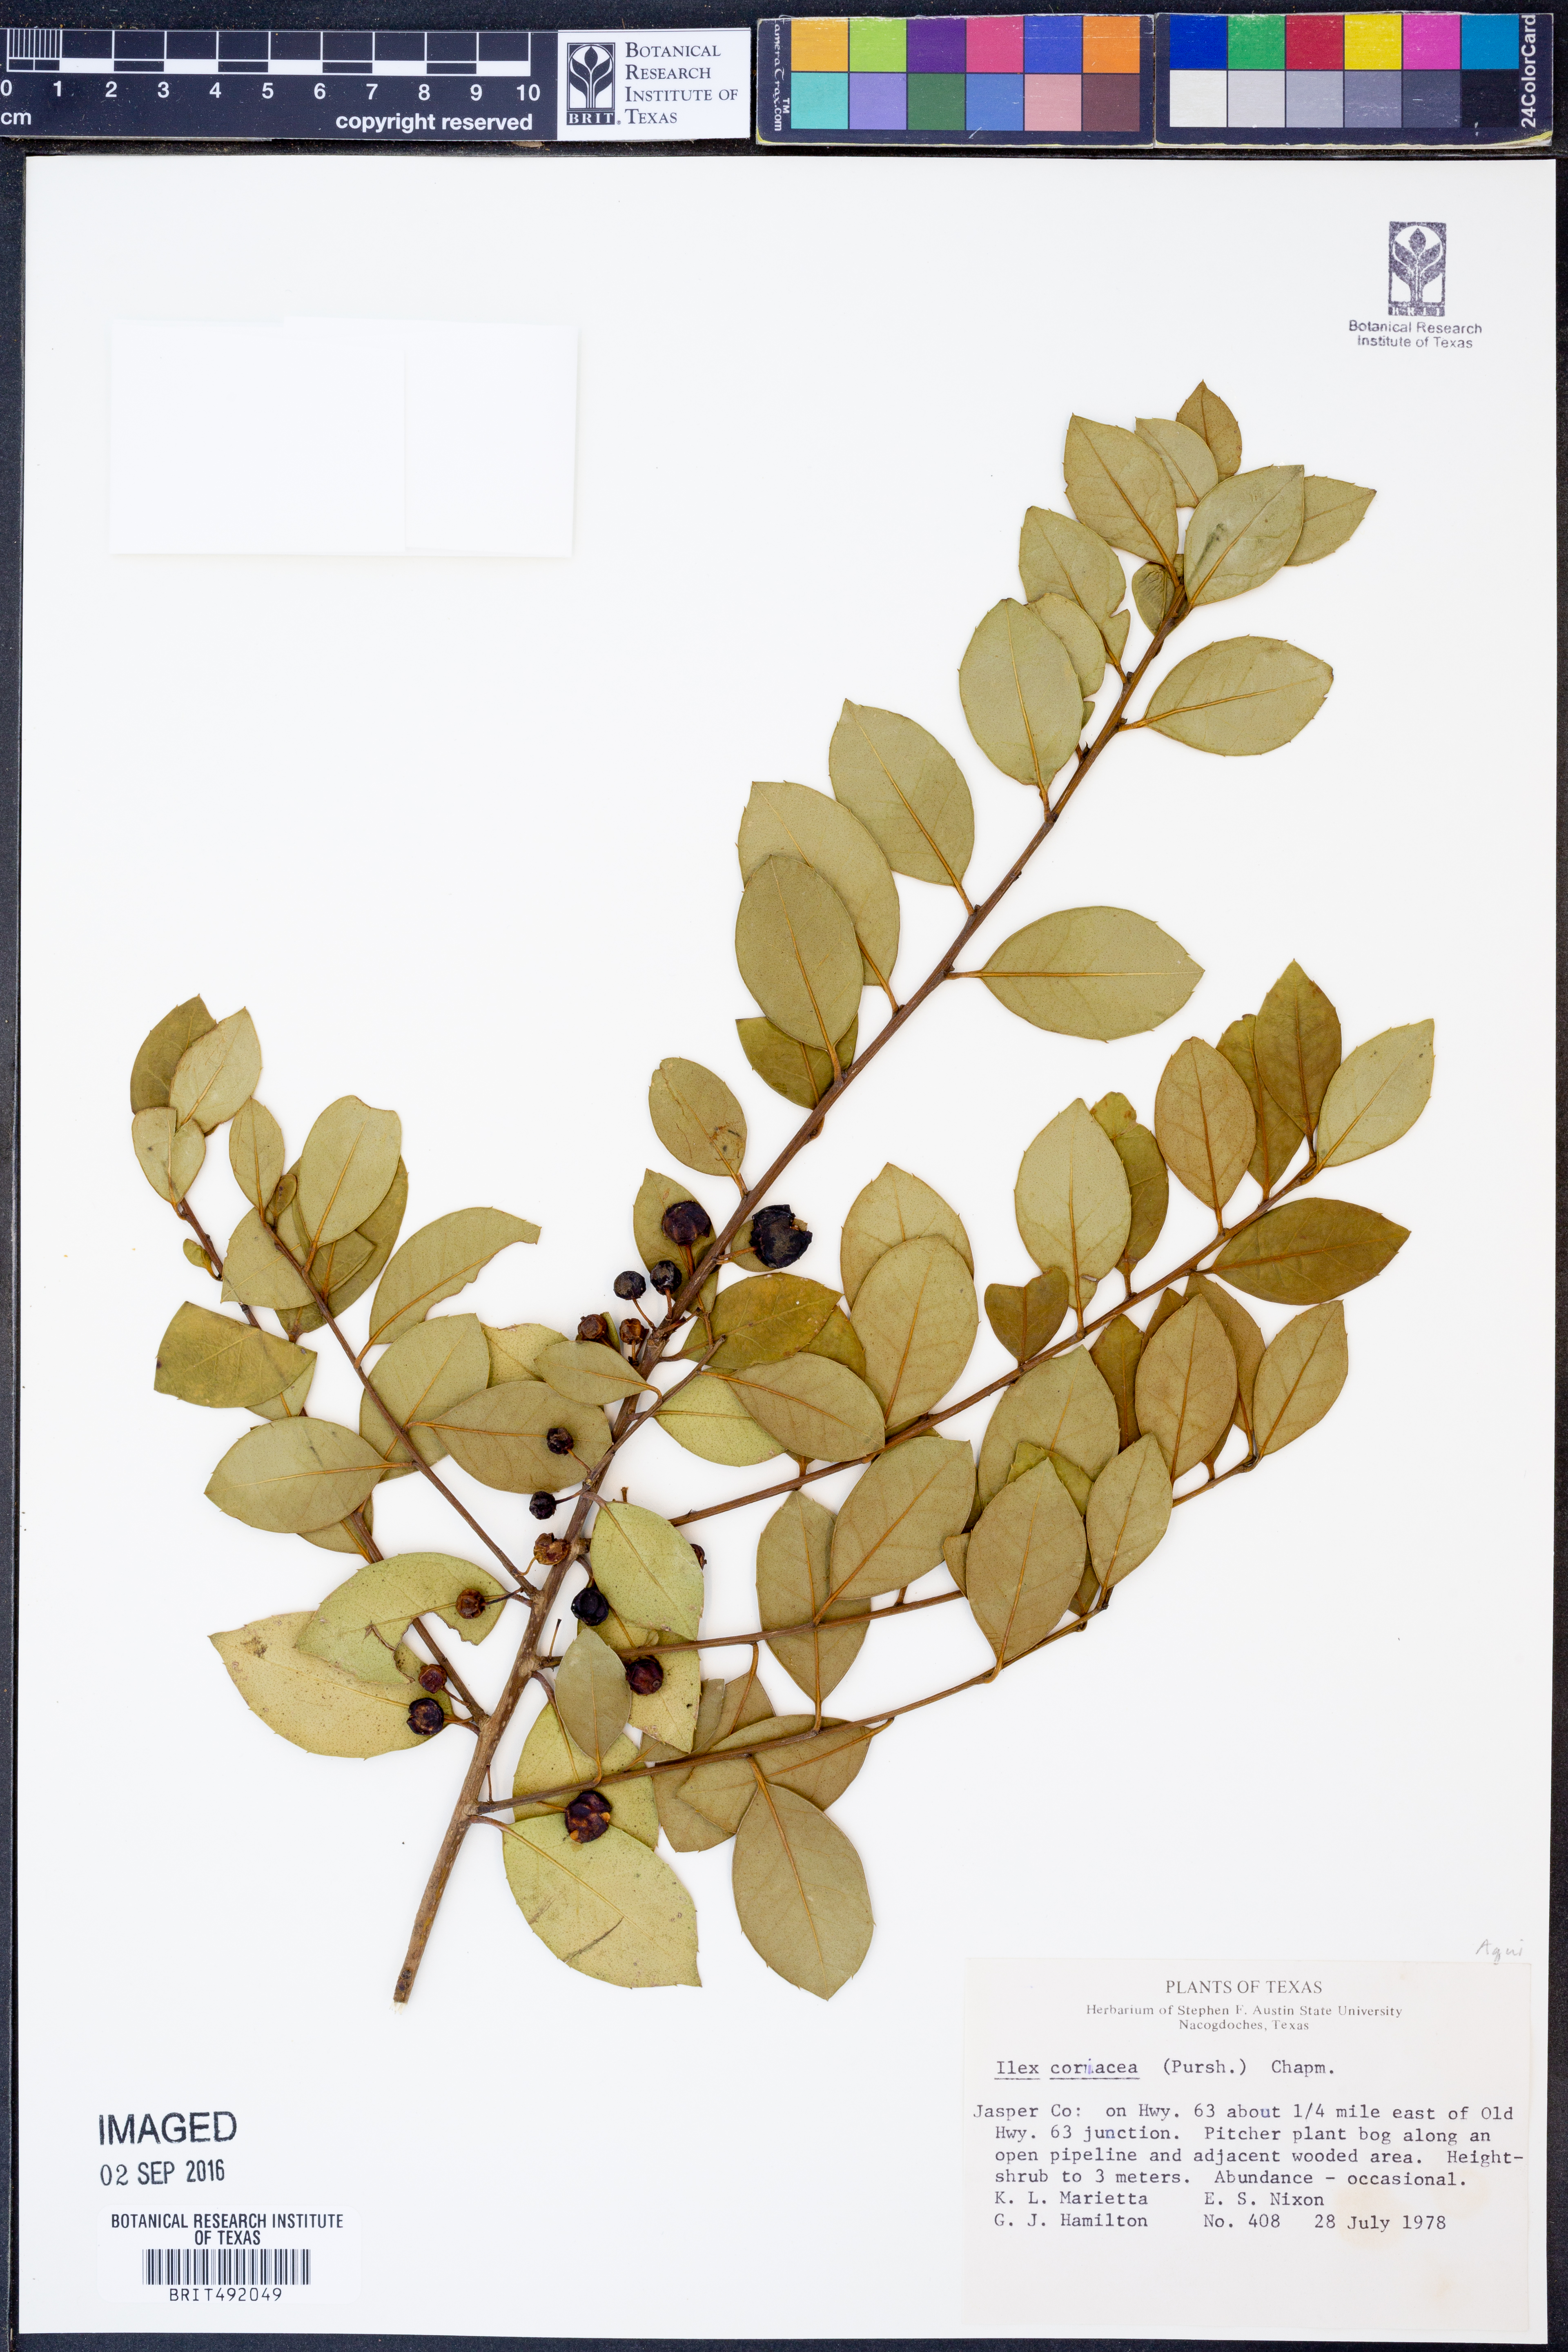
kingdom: Plantae
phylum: Tracheophyta
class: Magnoliopsida
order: Aquifoliales
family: Aquifoliaceae
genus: Ilex
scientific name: Ilex coriacea
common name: Sweet gallberry
